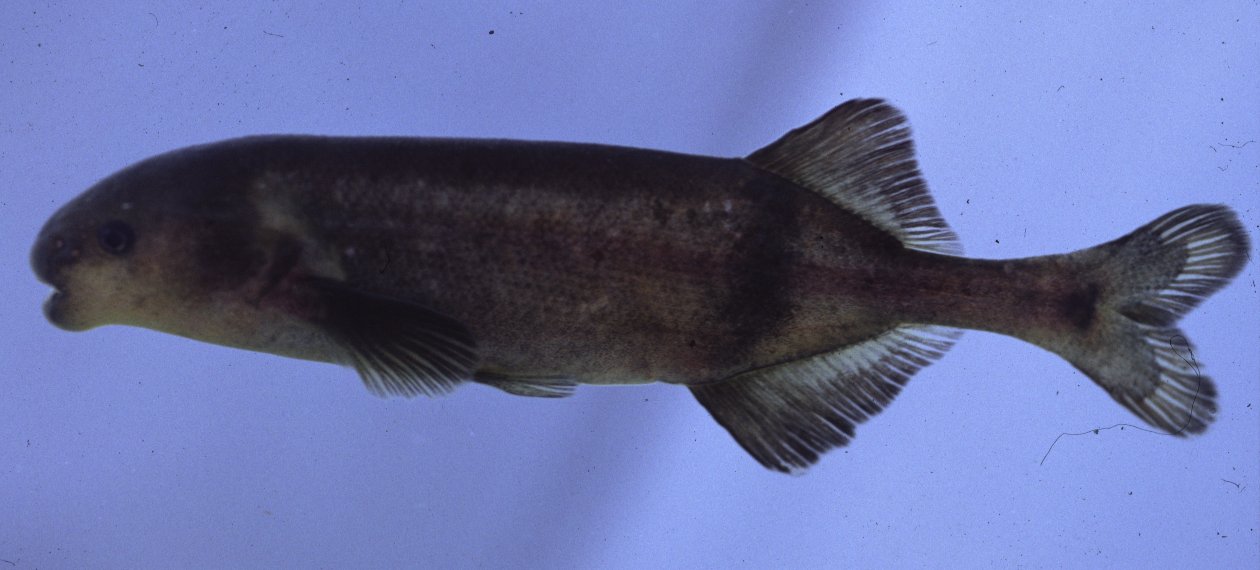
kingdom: Animalia
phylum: Chordata
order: Osteoglossiformes
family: Mormyridae
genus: Hippopotamyrus
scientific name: Hippopotamyrus ansorgii
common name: Slender stonebasher
